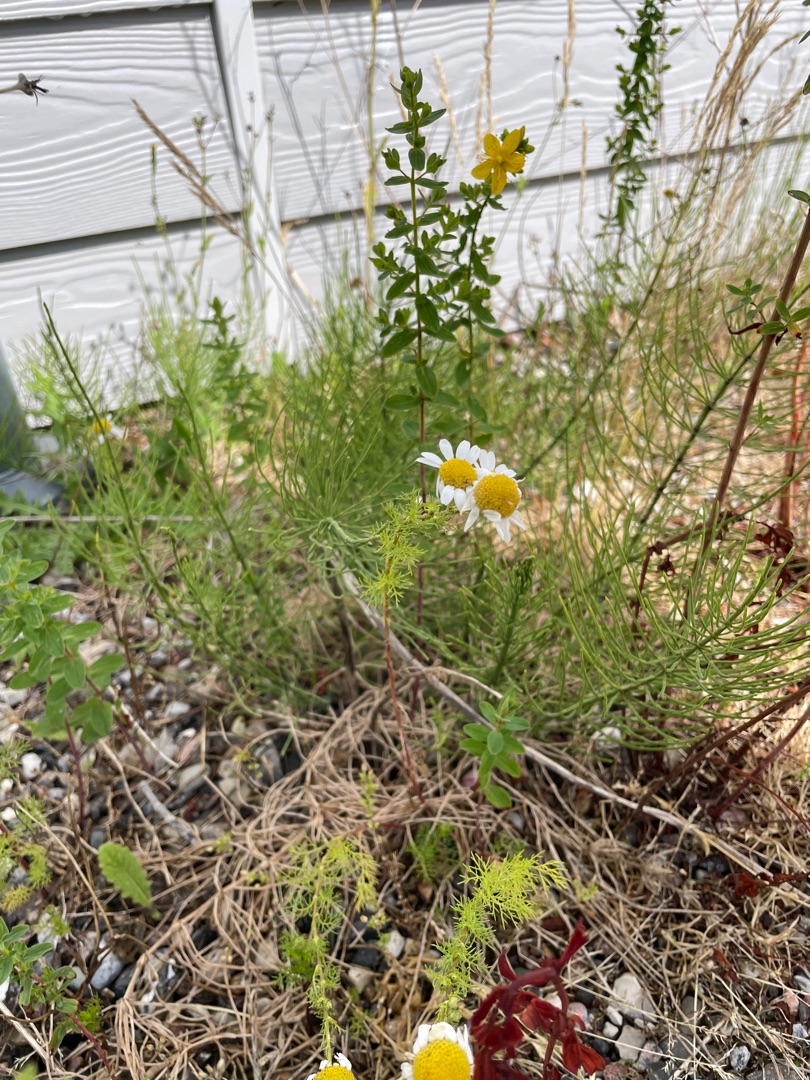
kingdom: Plantae
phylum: Tracheophyta
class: Magnoliopsida
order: Asterales
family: Asteraceae
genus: Tripleurospermum
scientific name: Tripleurospermum
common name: Kamille (Tripleurospermum-slægten)
